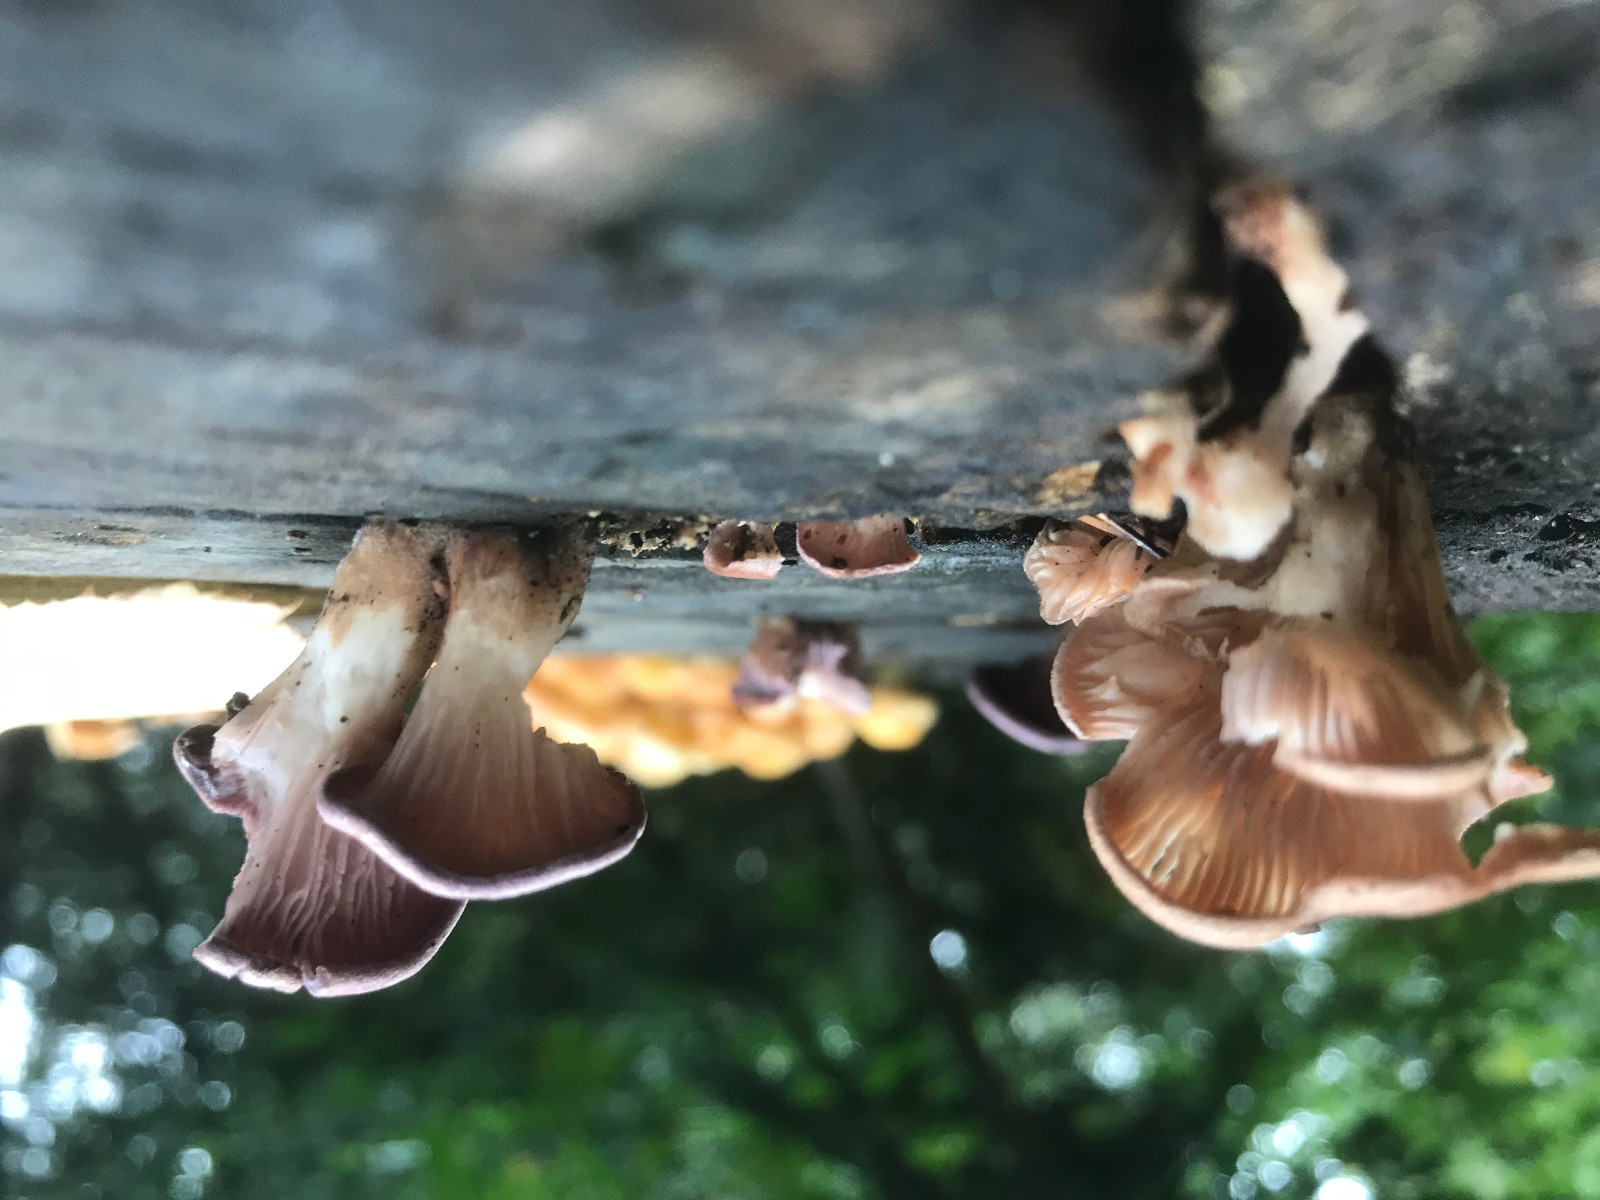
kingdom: Fungi
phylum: Basidiomycota
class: Agaricomycetes
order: Polyporales
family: Panaceae
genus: Panus
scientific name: Panus conchatus
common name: filtstokket læderhat
